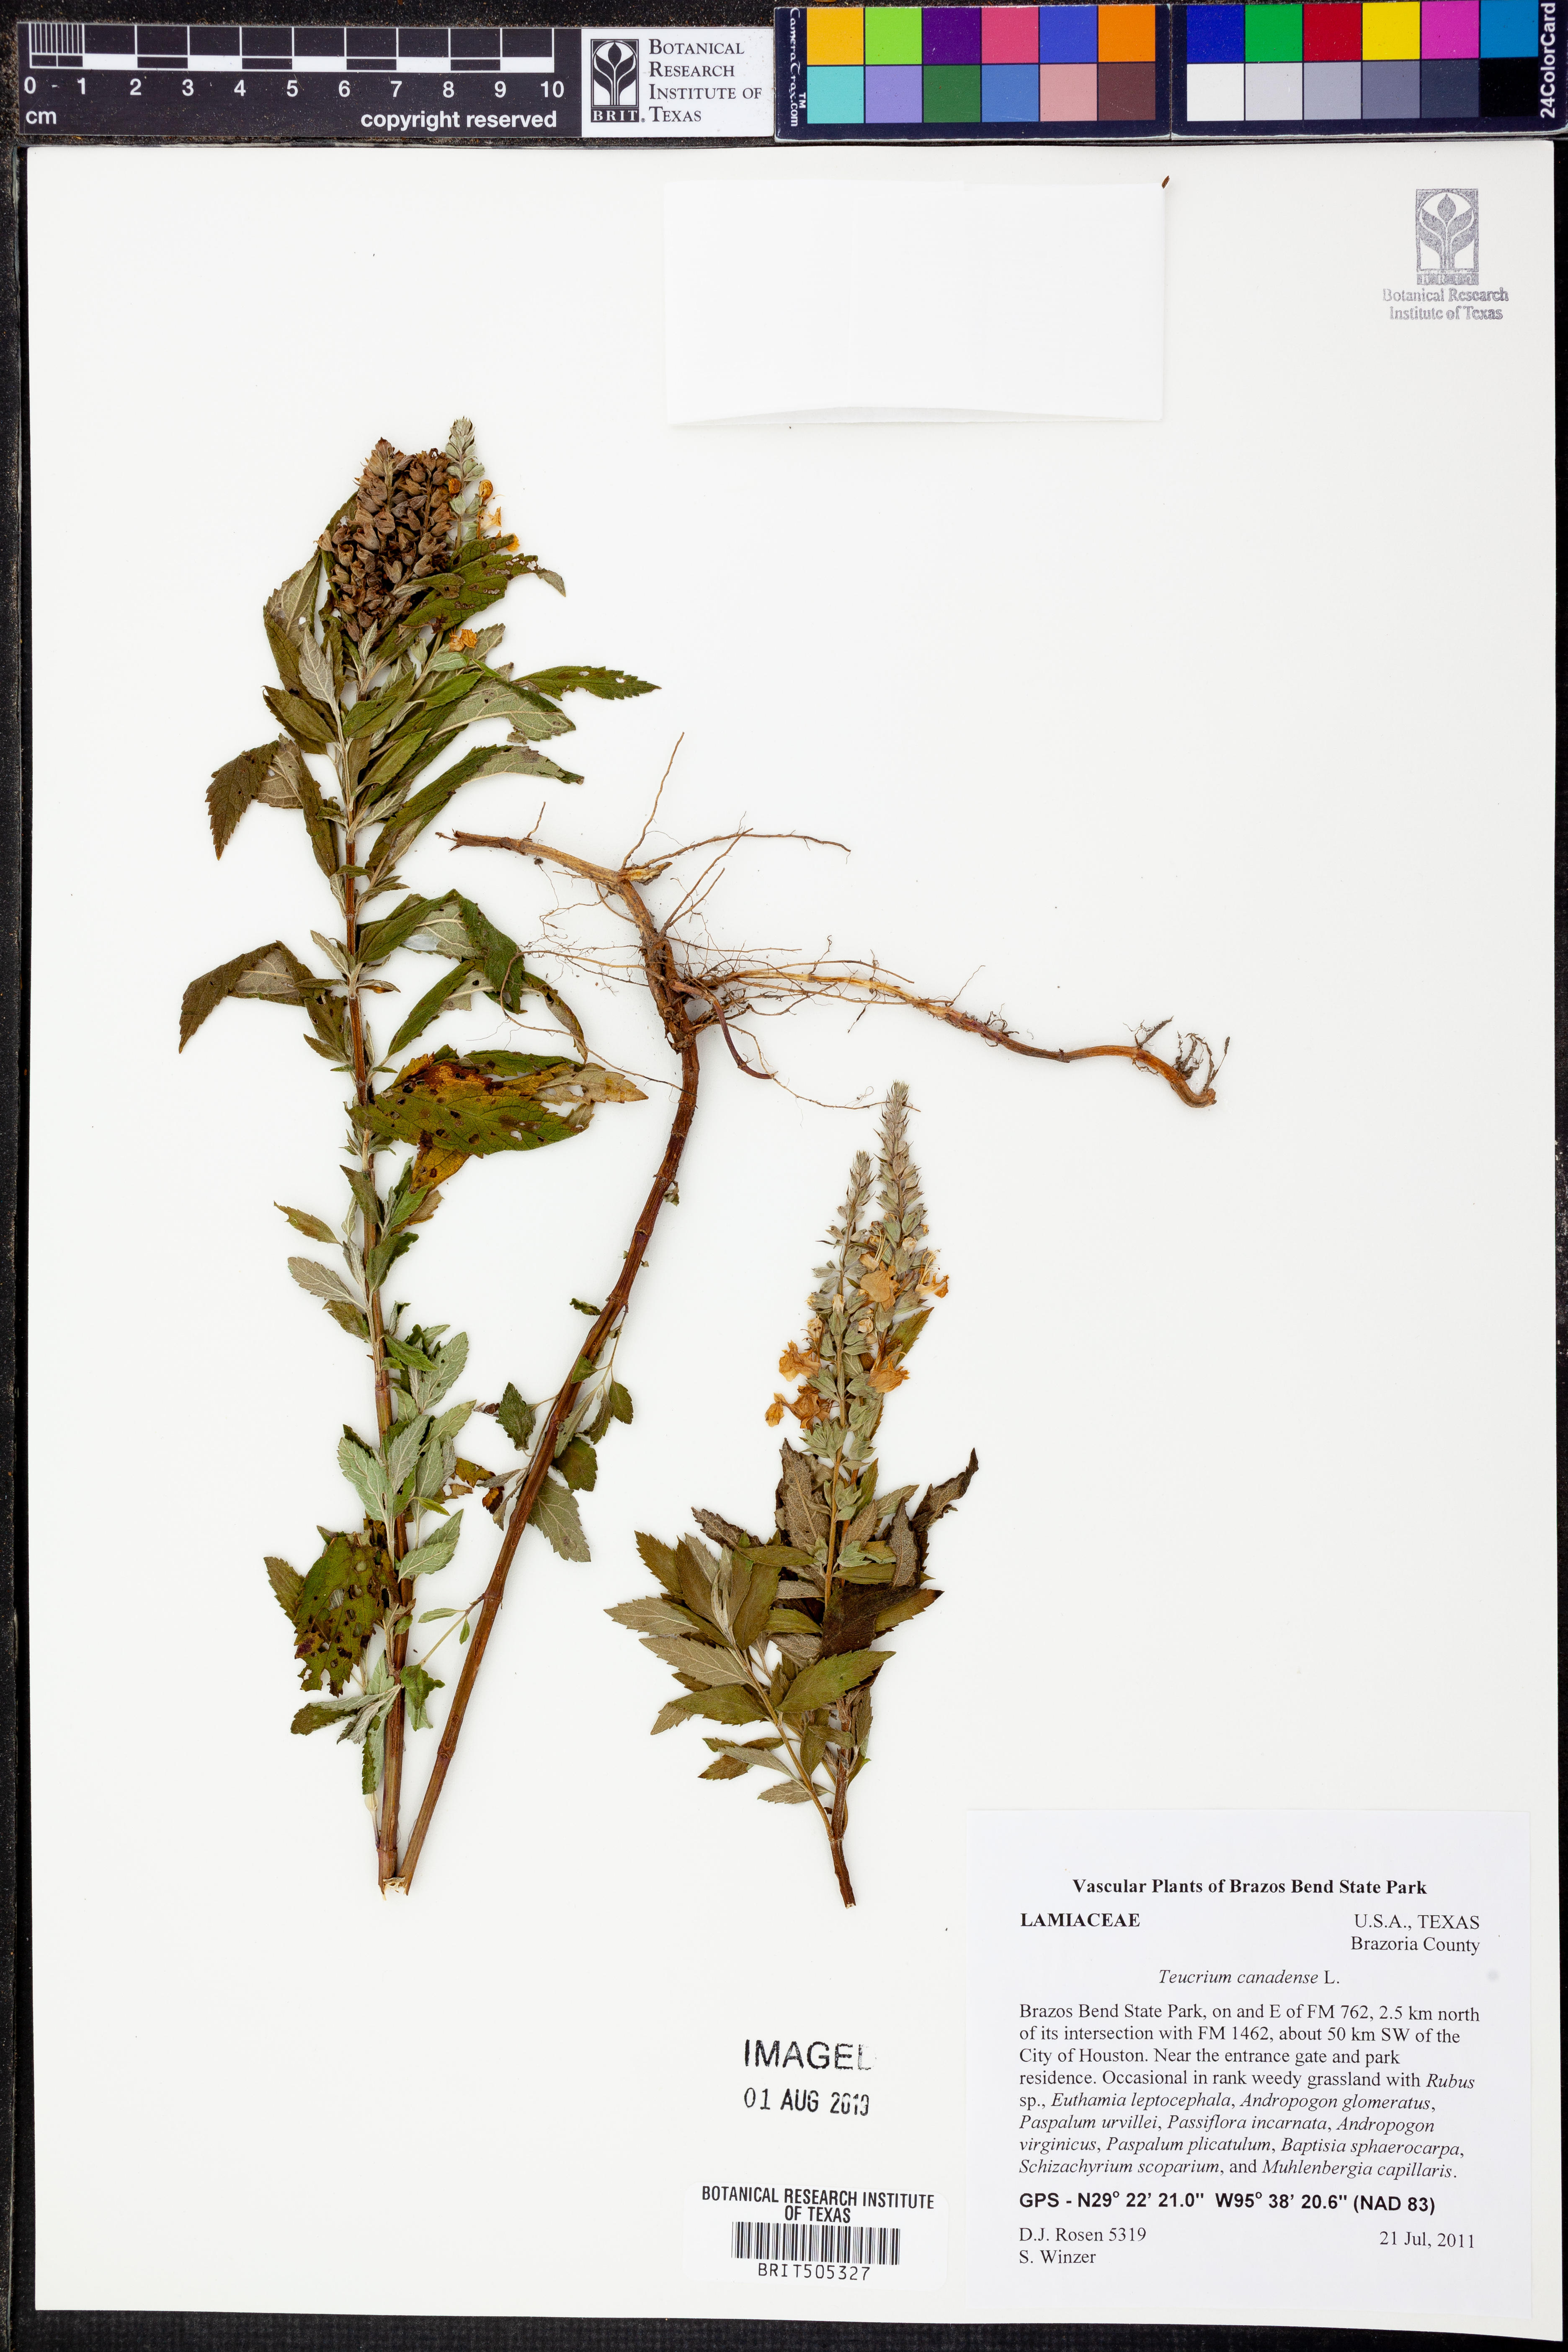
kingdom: Plantae
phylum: Tracheophyta
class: Magnoliopsida
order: Lamiales
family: Lamiaceae
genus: Teucrium
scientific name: Teucrium canadense
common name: American germander
